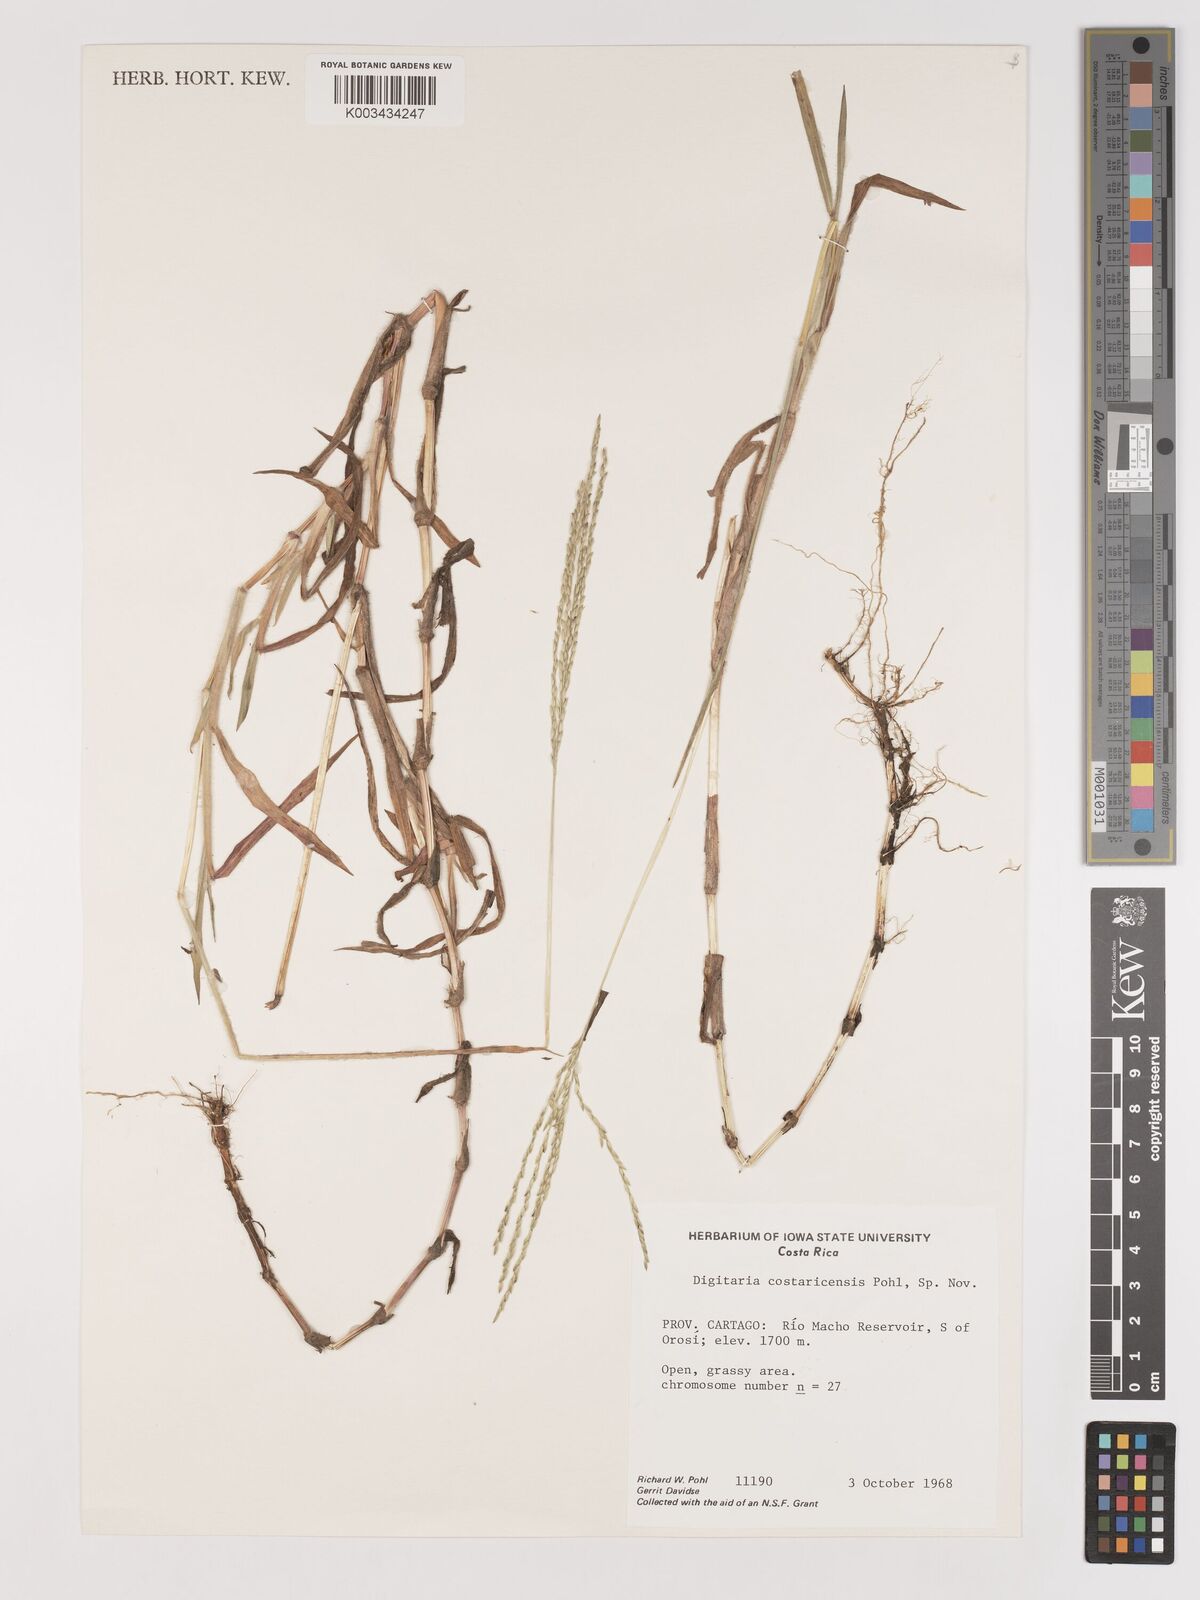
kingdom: Plantae
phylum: Tracheophyta
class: Liliopsida
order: Poales
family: Poaceae
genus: Digitaria
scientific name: Digitaria costaricensis
